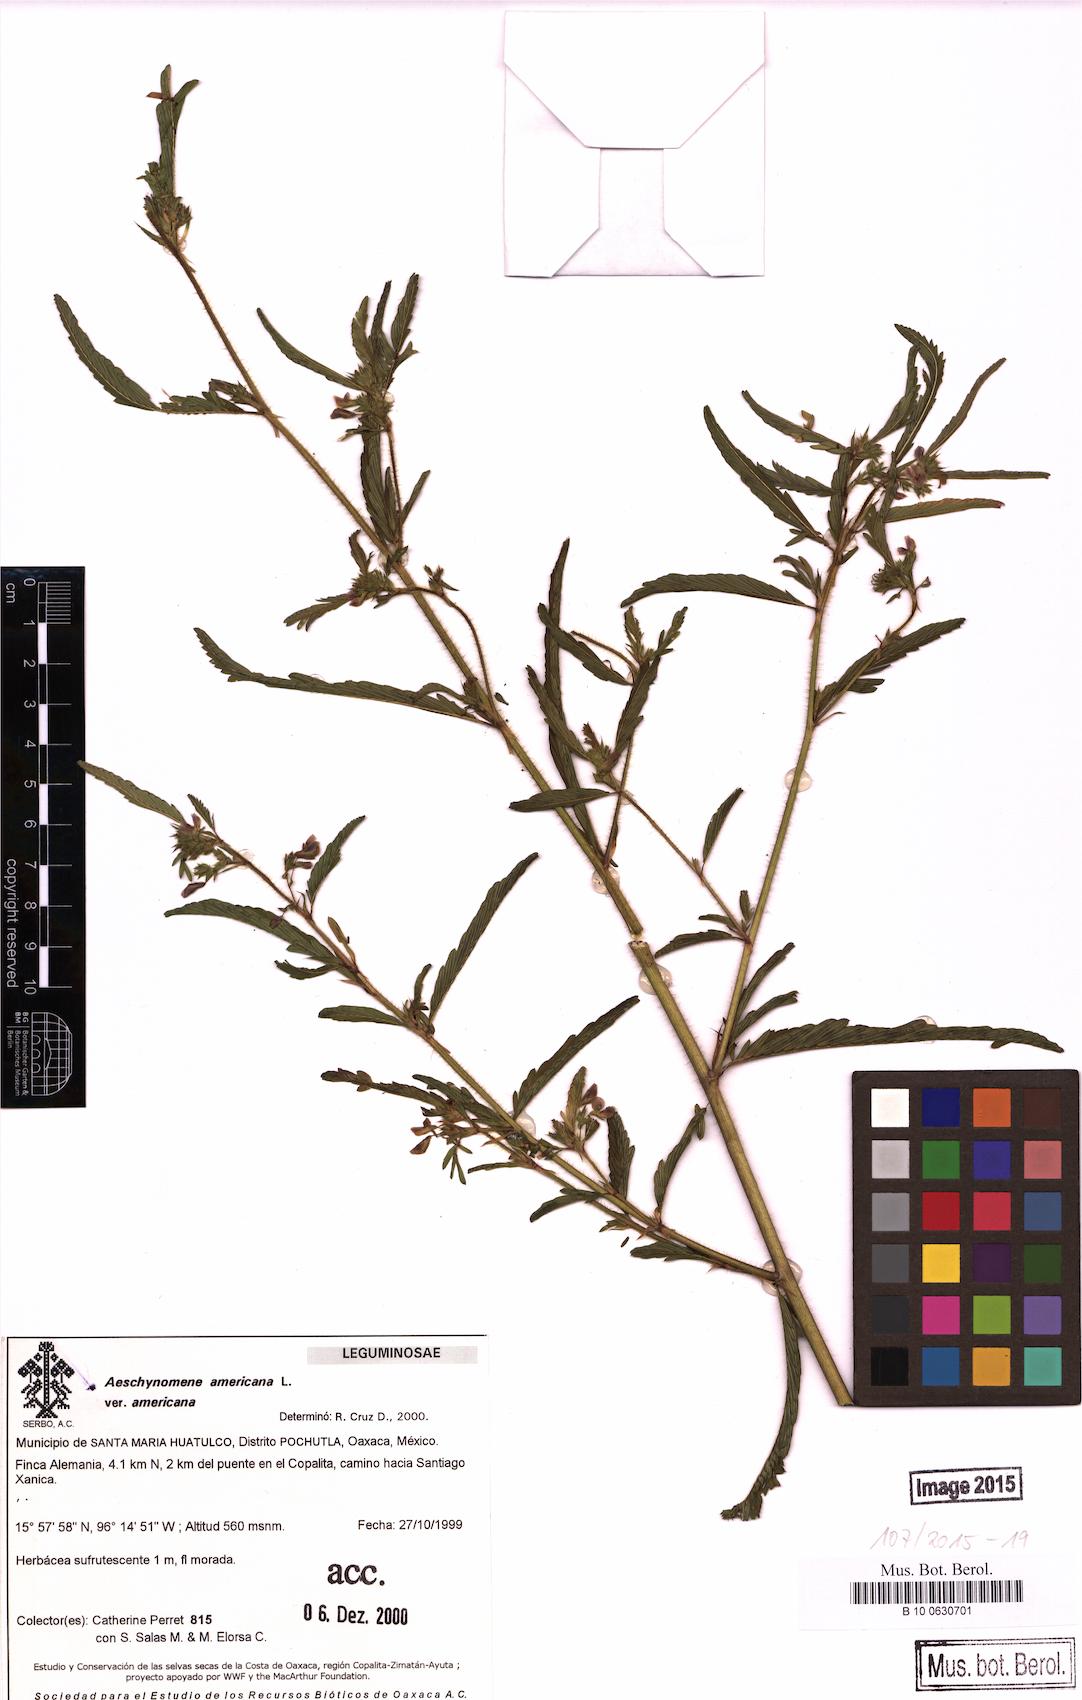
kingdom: Plantae
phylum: Tracheophyta
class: Magnoliopsida
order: Fabales
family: Fabaceae
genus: Aeschynomene
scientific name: Aeschynomene americana
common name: Joint-vetch
